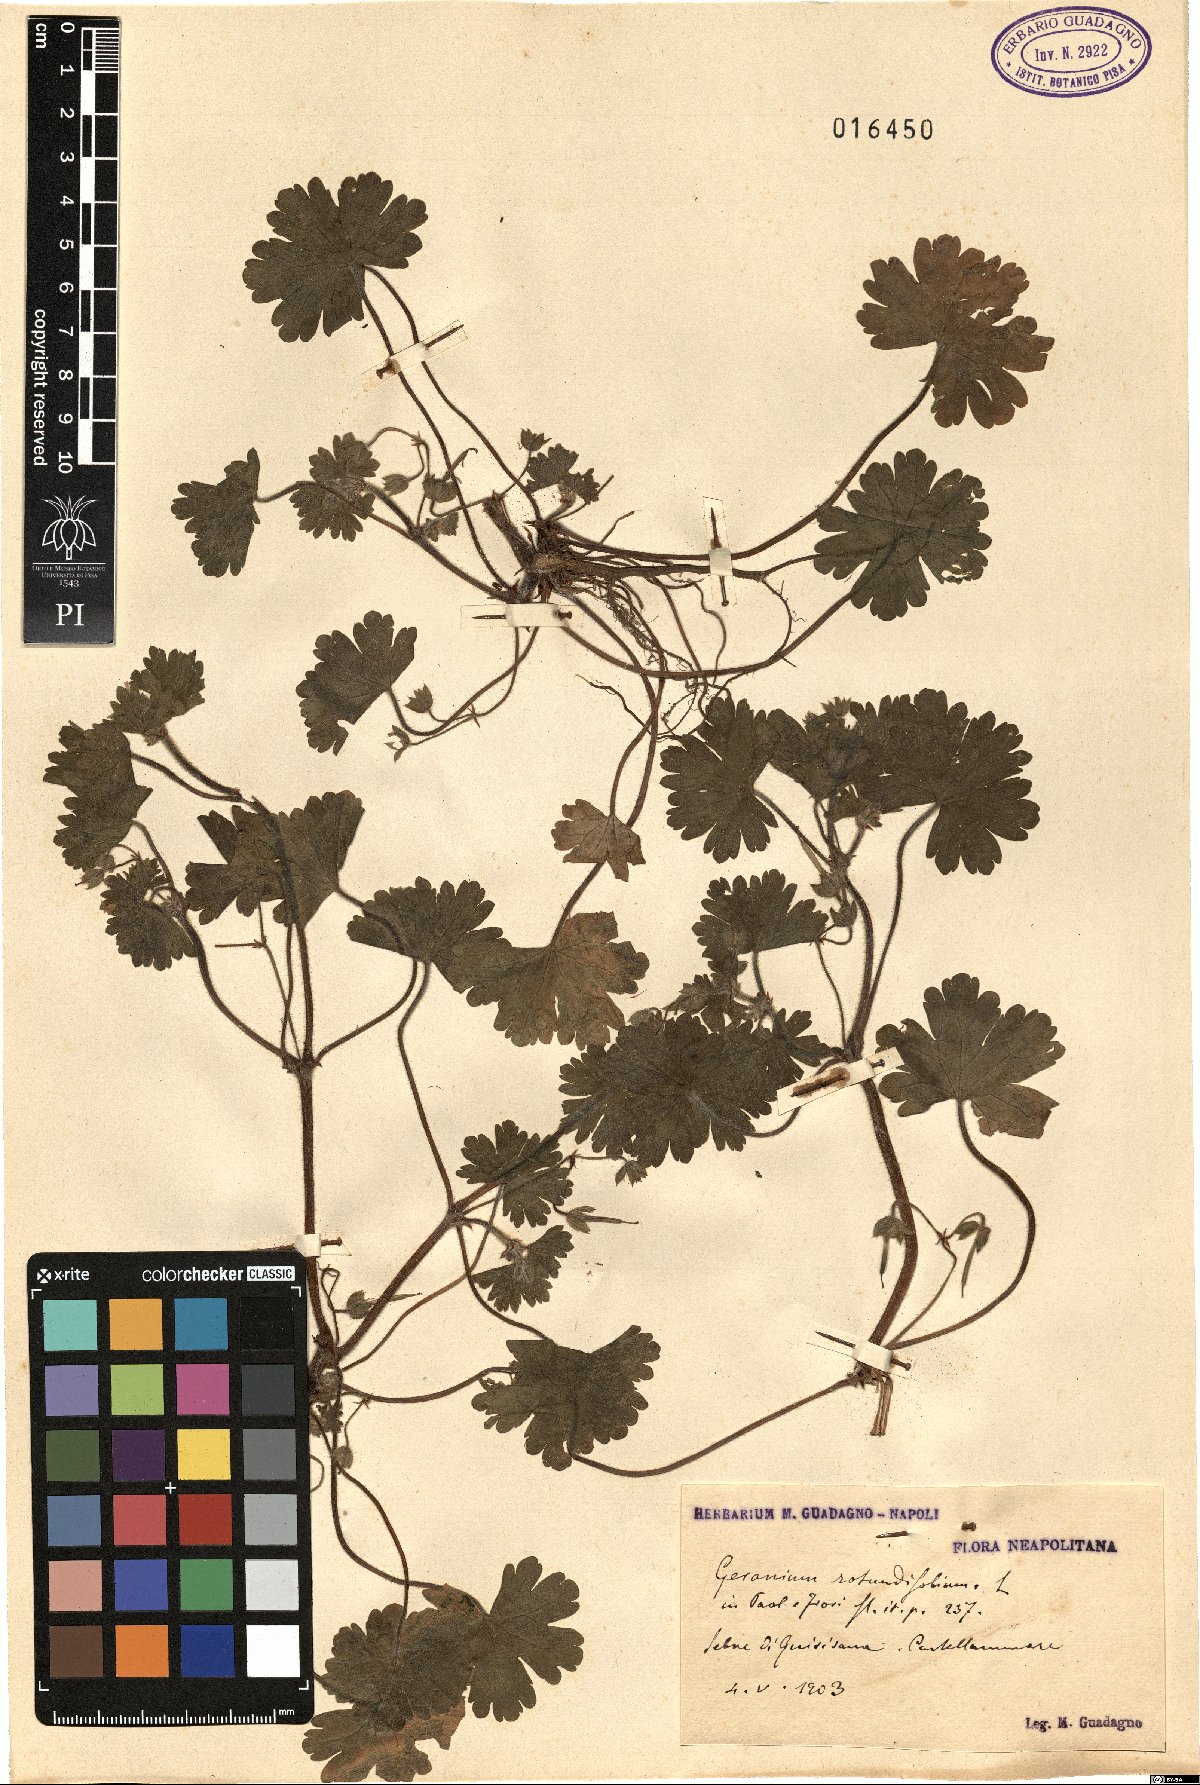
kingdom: Plantae
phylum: Tracheophyta
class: Magnoliopsida
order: Geraniales
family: Geraniaceae
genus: Geranium
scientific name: Geranium rotundifolium
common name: Round-leaved crane's-bill
